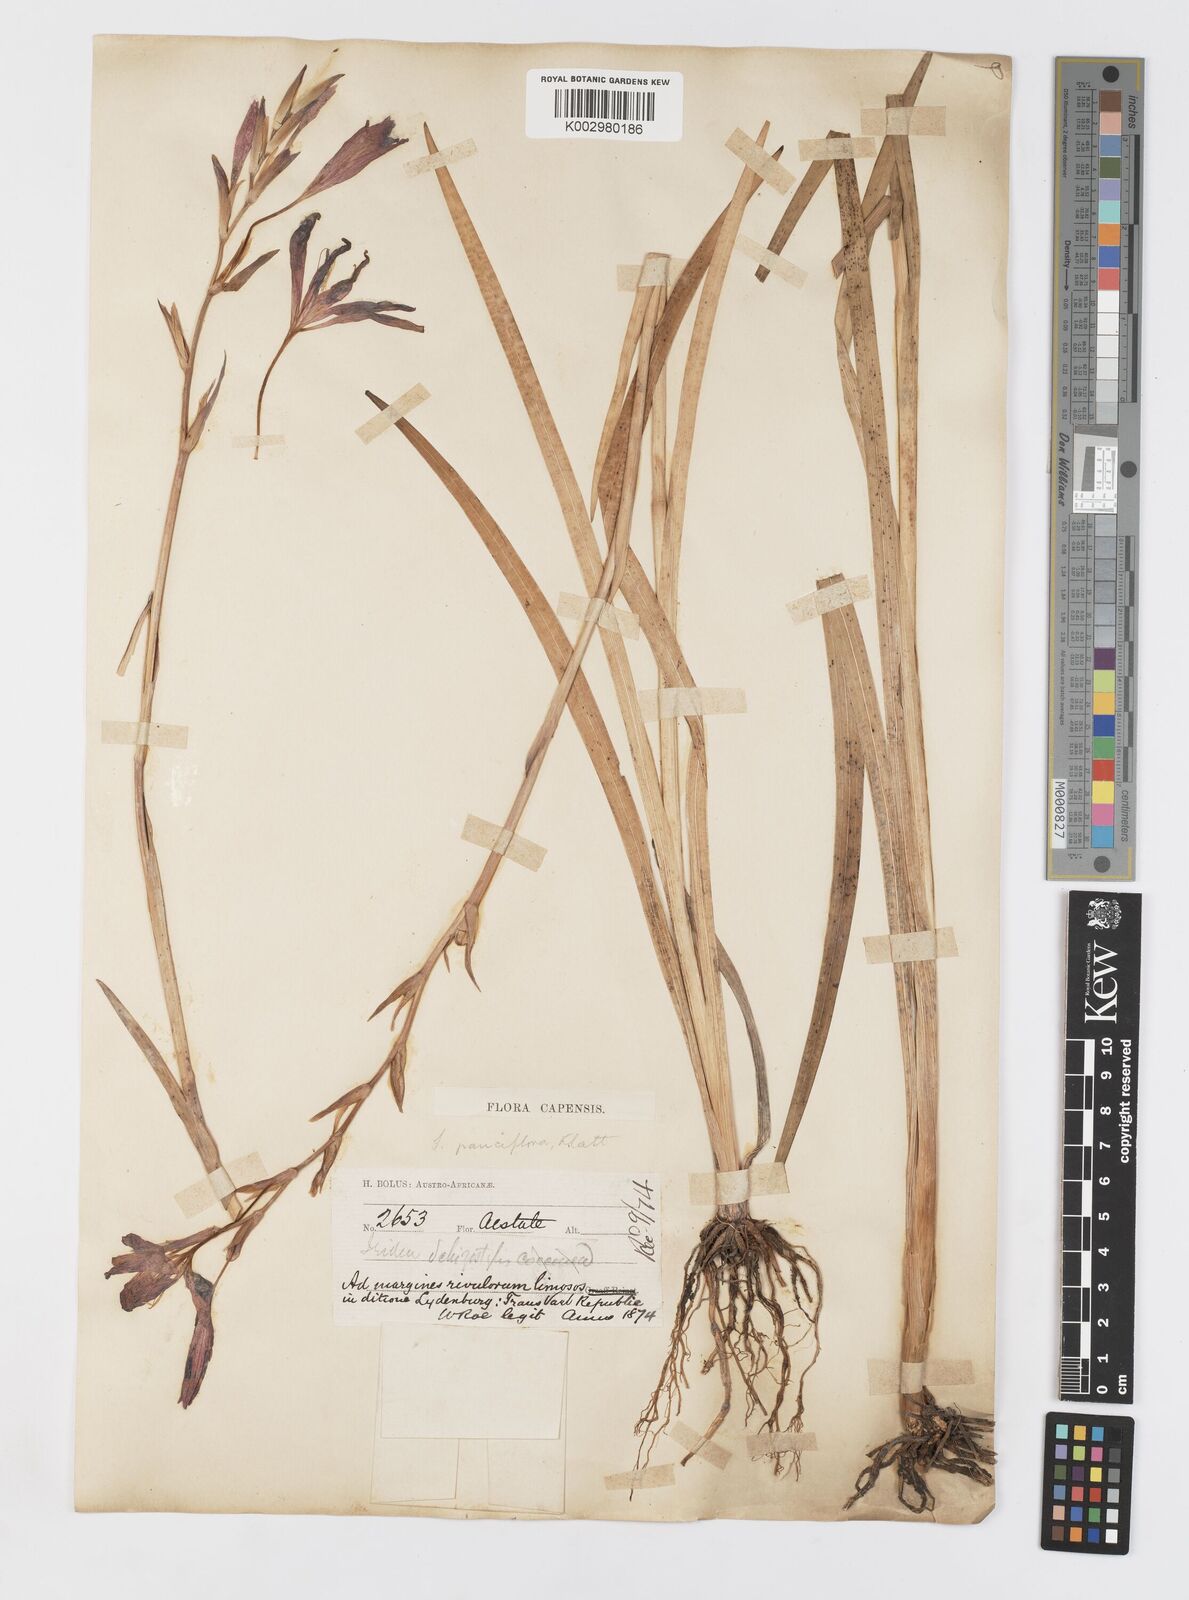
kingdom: Plantae
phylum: Tracheophyta
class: Liliopsida
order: Asparagales
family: Iridaceae
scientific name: Iridaceae
